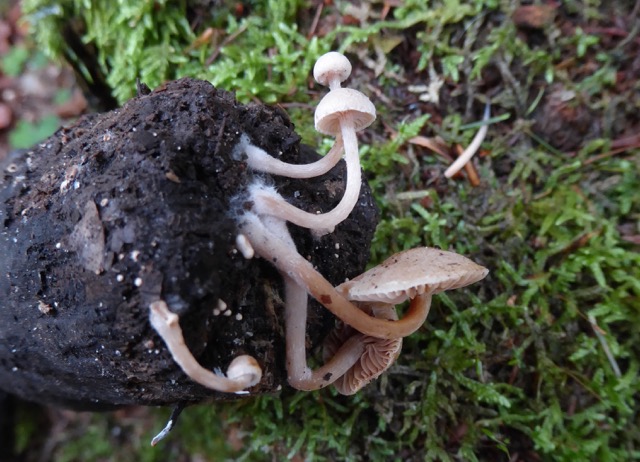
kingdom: Fungi
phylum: Basidiomycota
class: Agaricomycetes
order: Agaricales
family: Tubariaceae
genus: Tubaria
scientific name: Tubaria conspersa
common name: bleg fnughat
